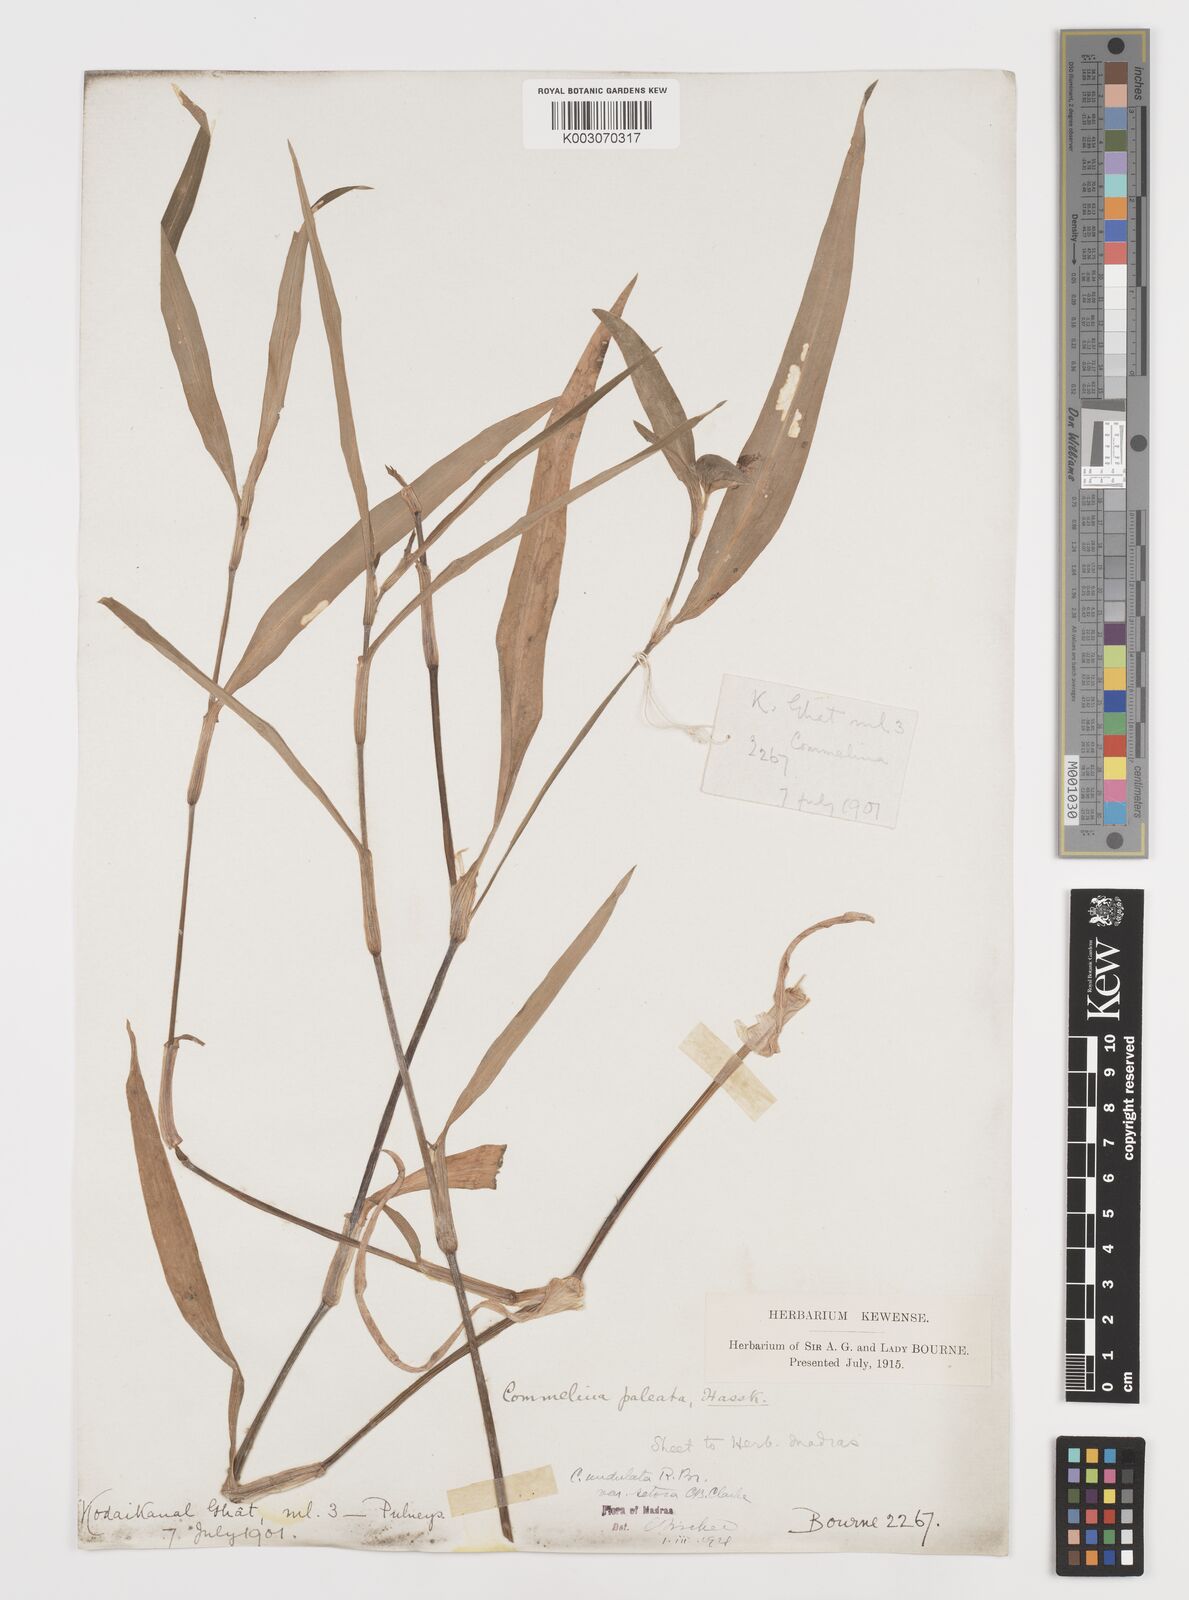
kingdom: Plantae
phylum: Tracheophyta
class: Liliopsida
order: Commelinales
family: Commelinaceae
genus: Commelina
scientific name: Commelina chamissonis
